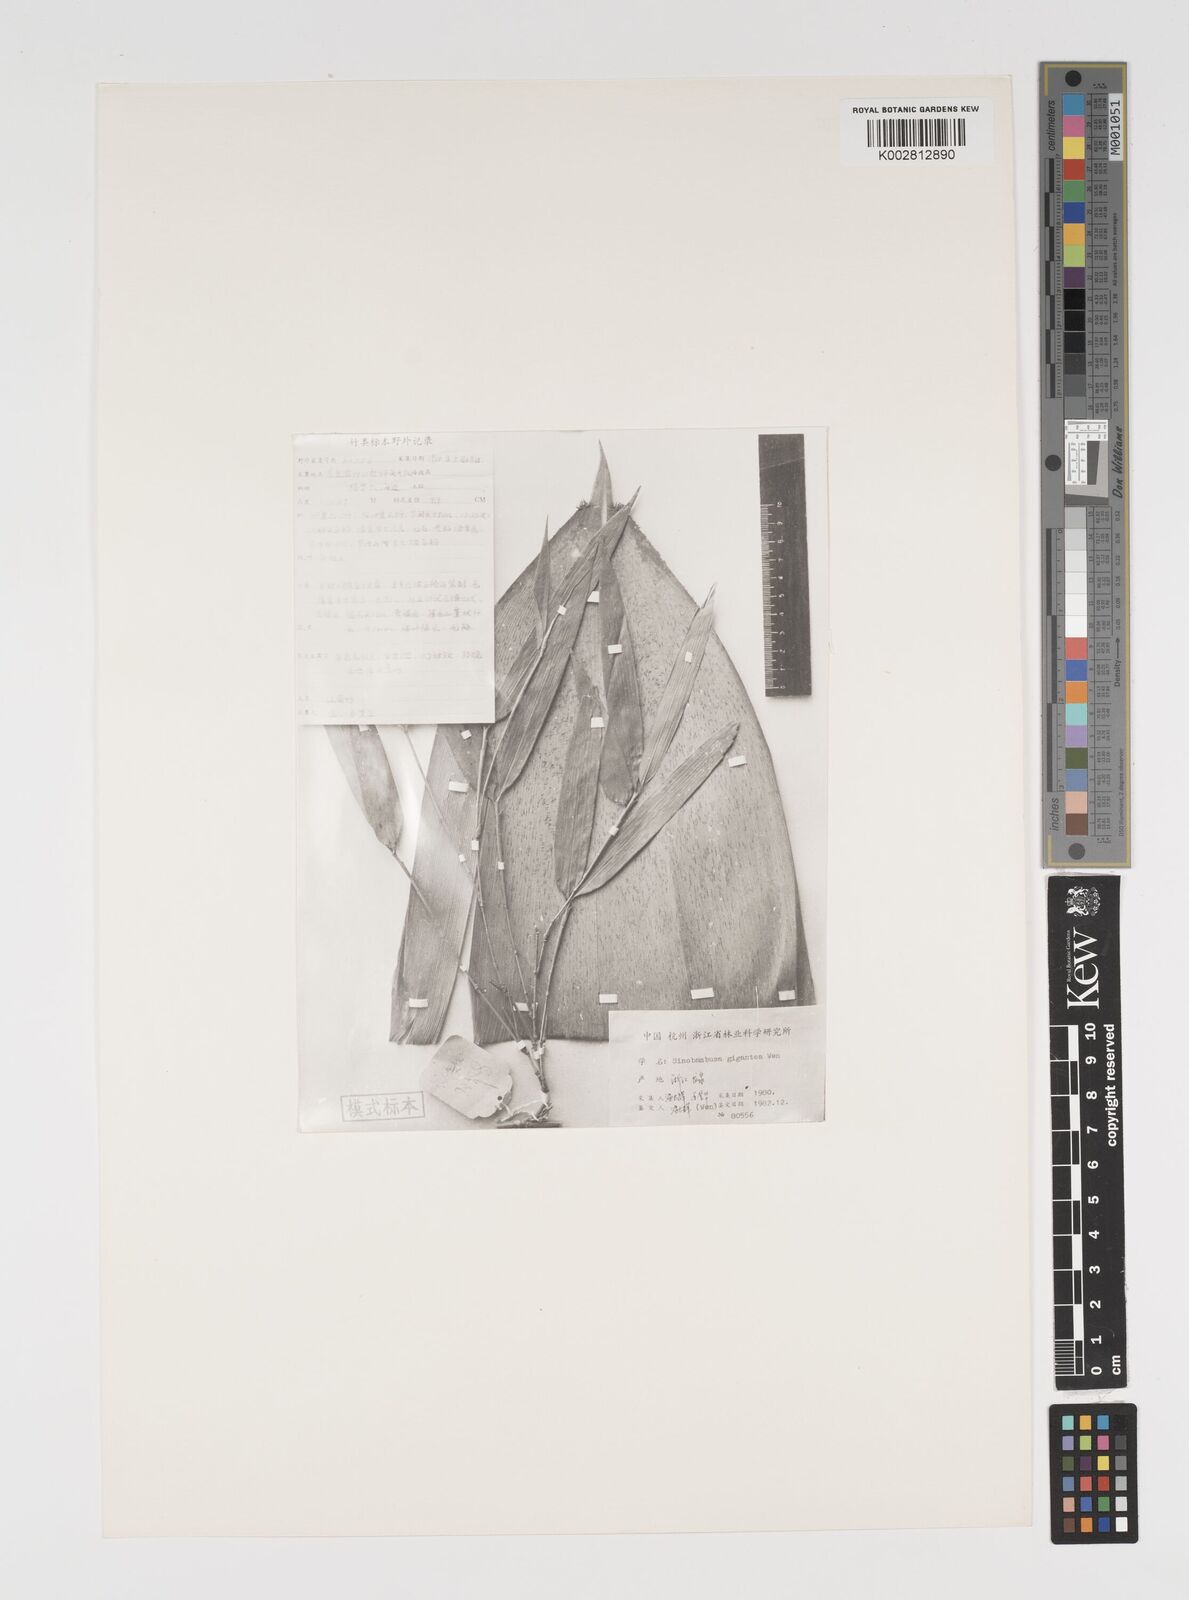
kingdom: Plantae
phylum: Tracheophyta
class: Liliopsida
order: Poales
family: Poaceae
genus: Indosasa
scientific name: Indosasa gigantea
